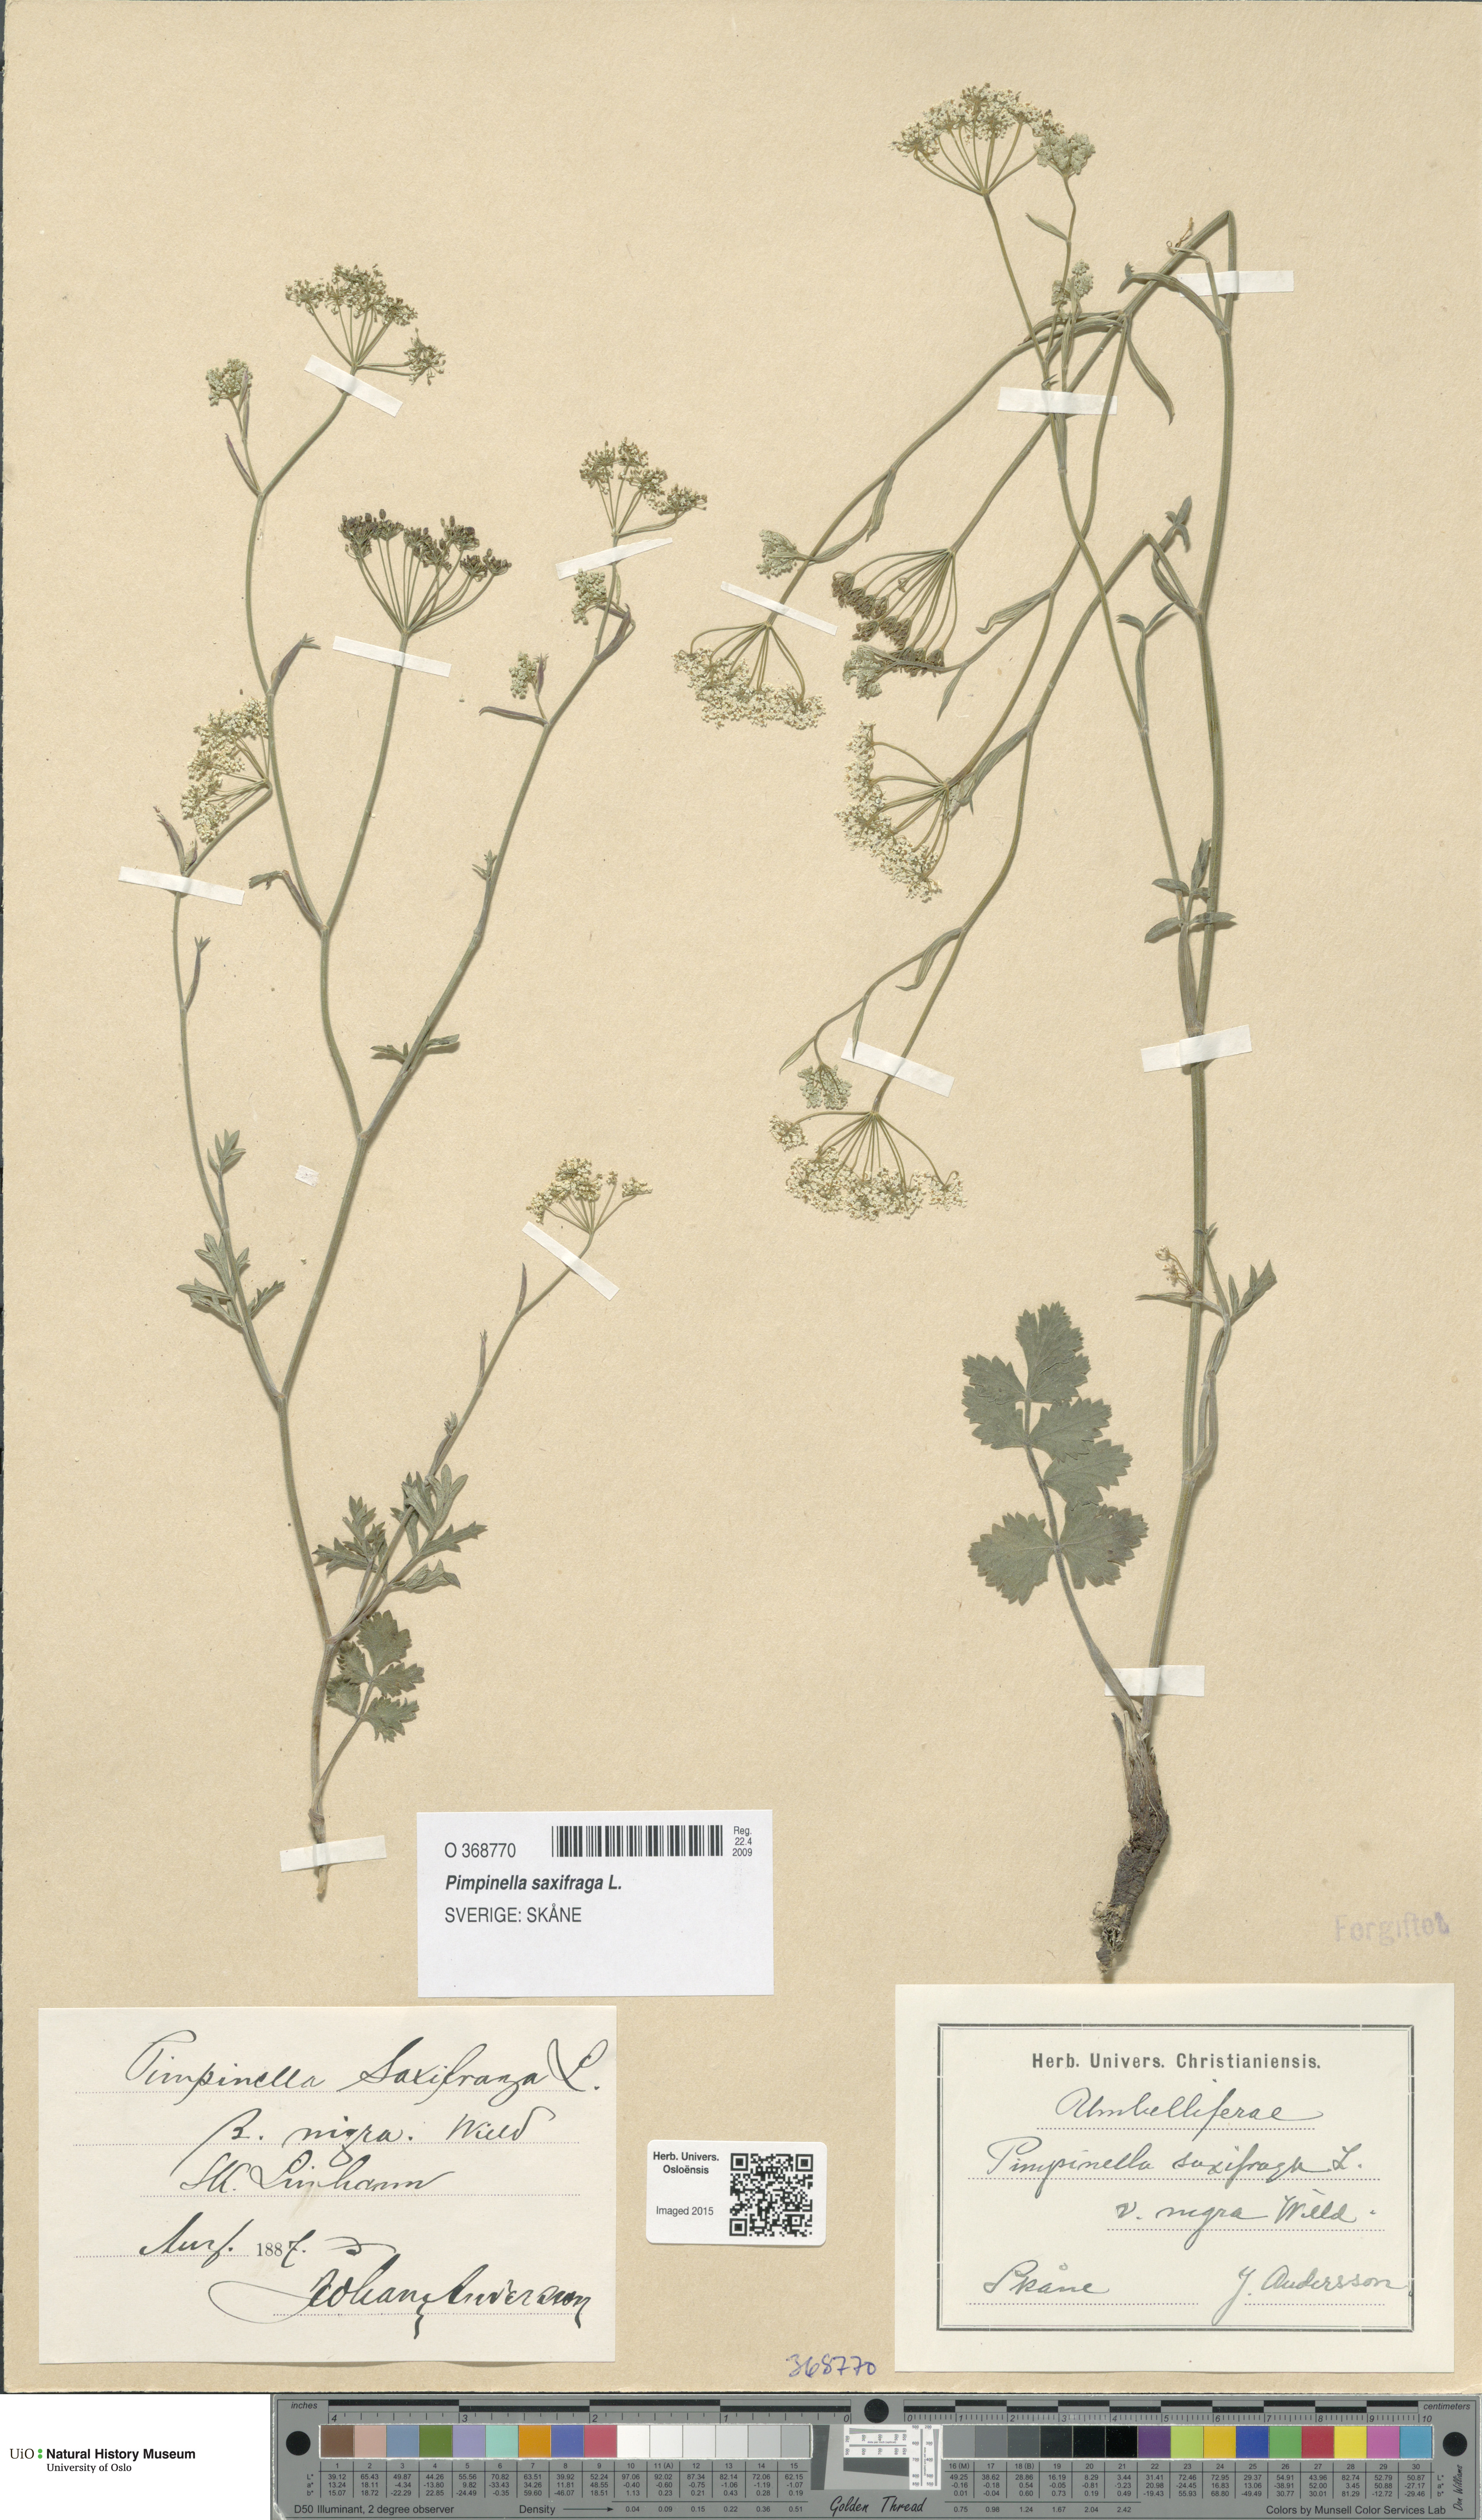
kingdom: Plantae
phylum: Tracheophyta
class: Magnoliopsida
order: Apiales
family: Apiaceae
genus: Pimpinella
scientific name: Pimpinella nigra
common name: Black pimpinella
